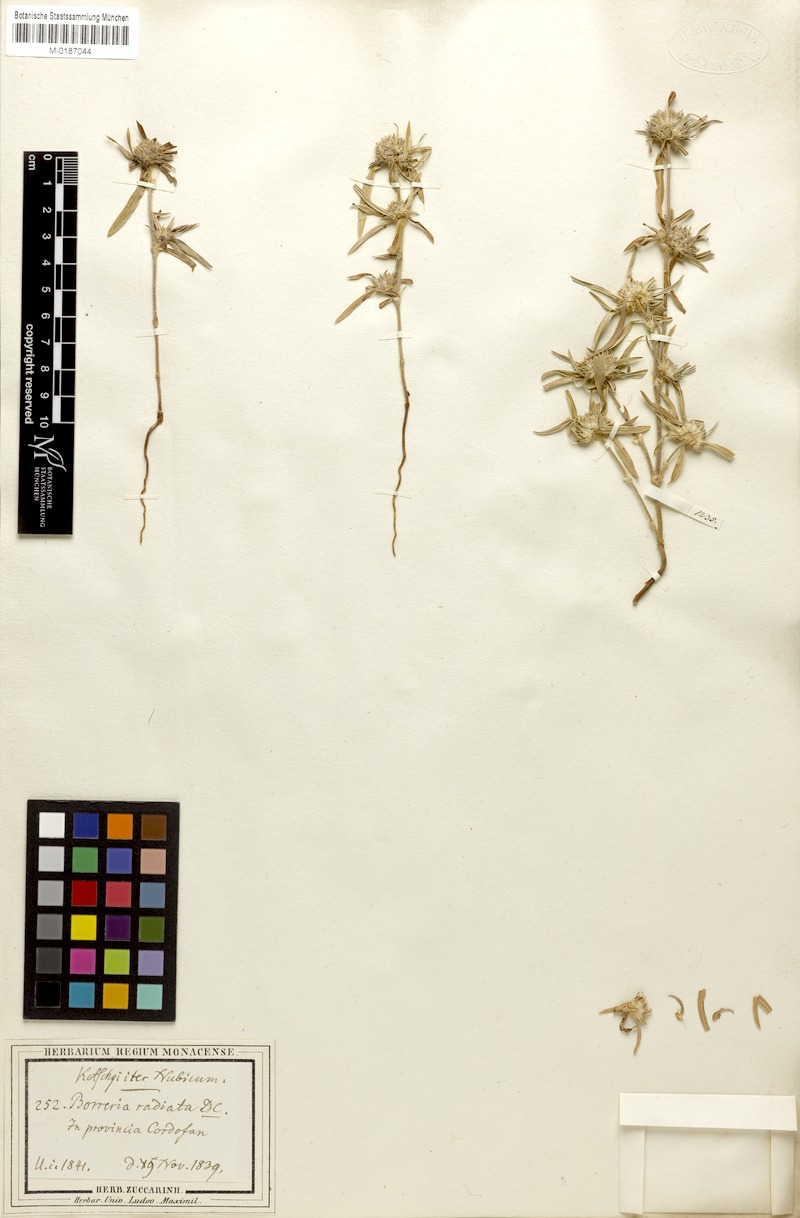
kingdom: Plantae
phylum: Tracheophyta
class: Magnoliopsida
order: Gentianales
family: Rubiaceae
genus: Spermacoce
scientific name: Spermacoce radiata
